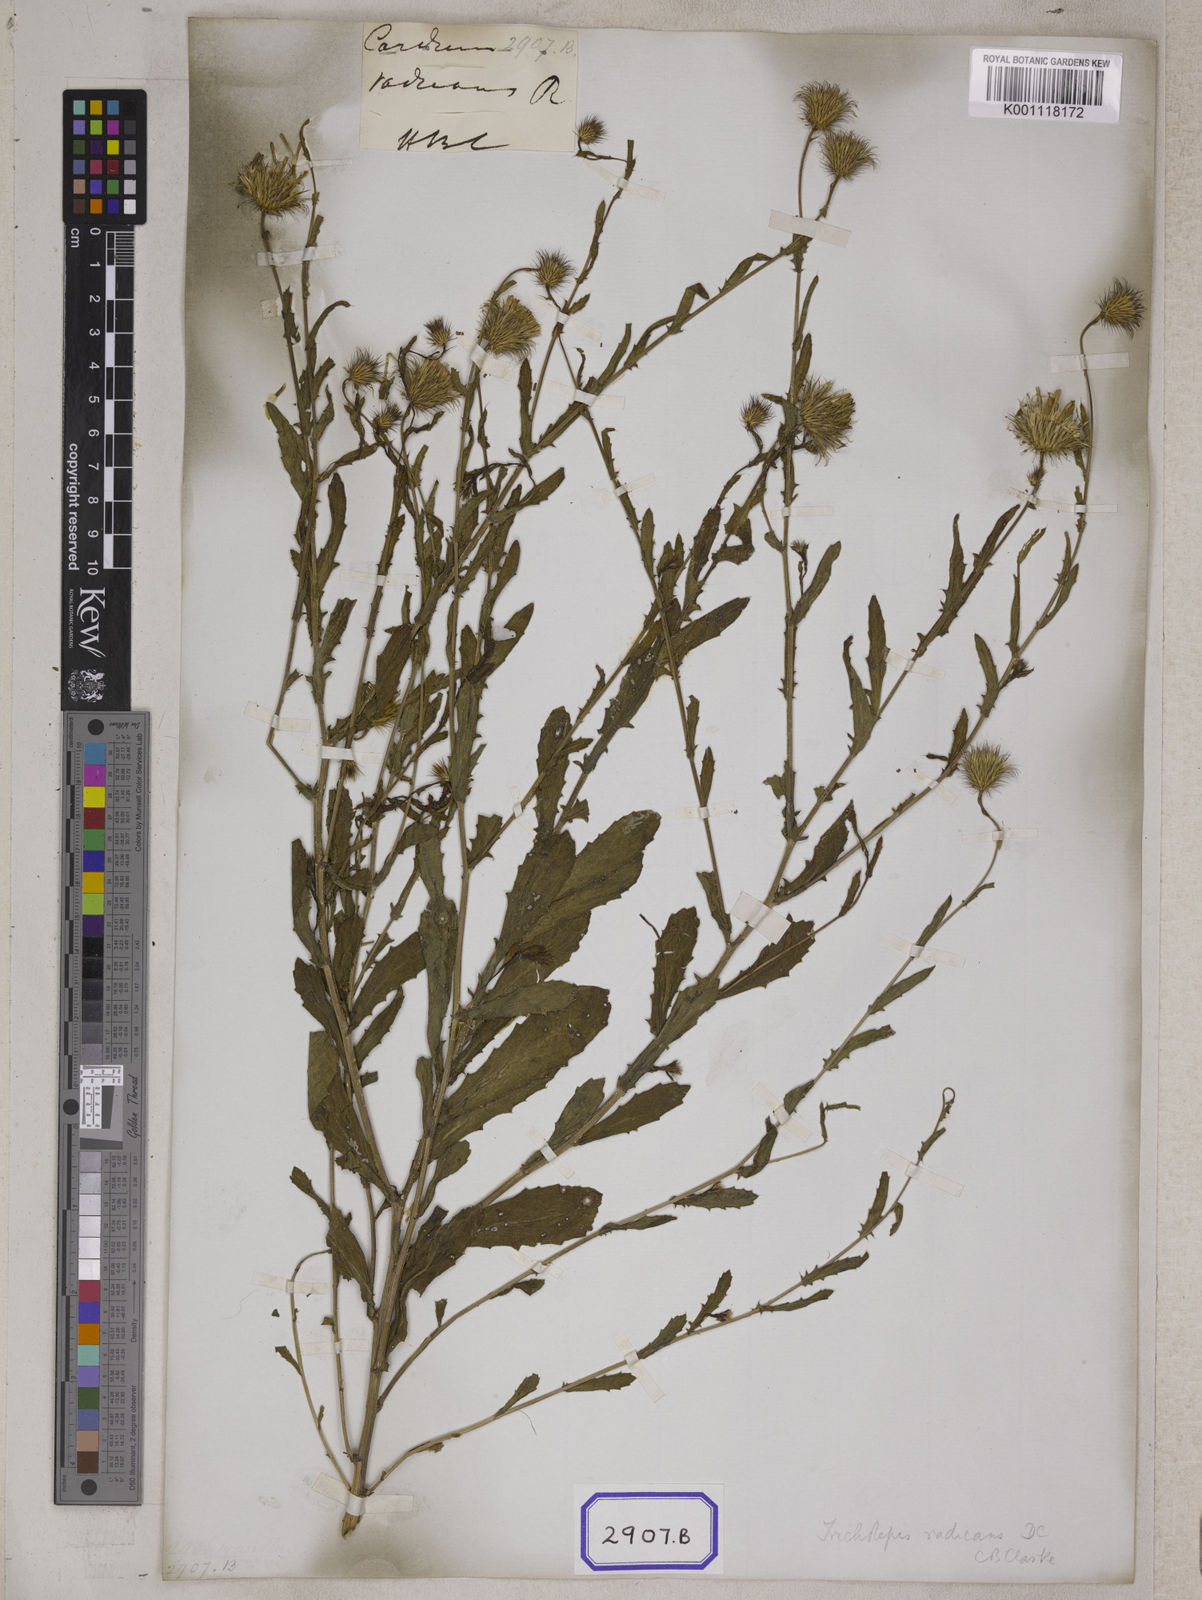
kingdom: Plantae
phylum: Tracheophyta
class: Magnoliopsida
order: Asterales
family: Asteraceae
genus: Tricholepis
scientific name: Tricholepis radicans
